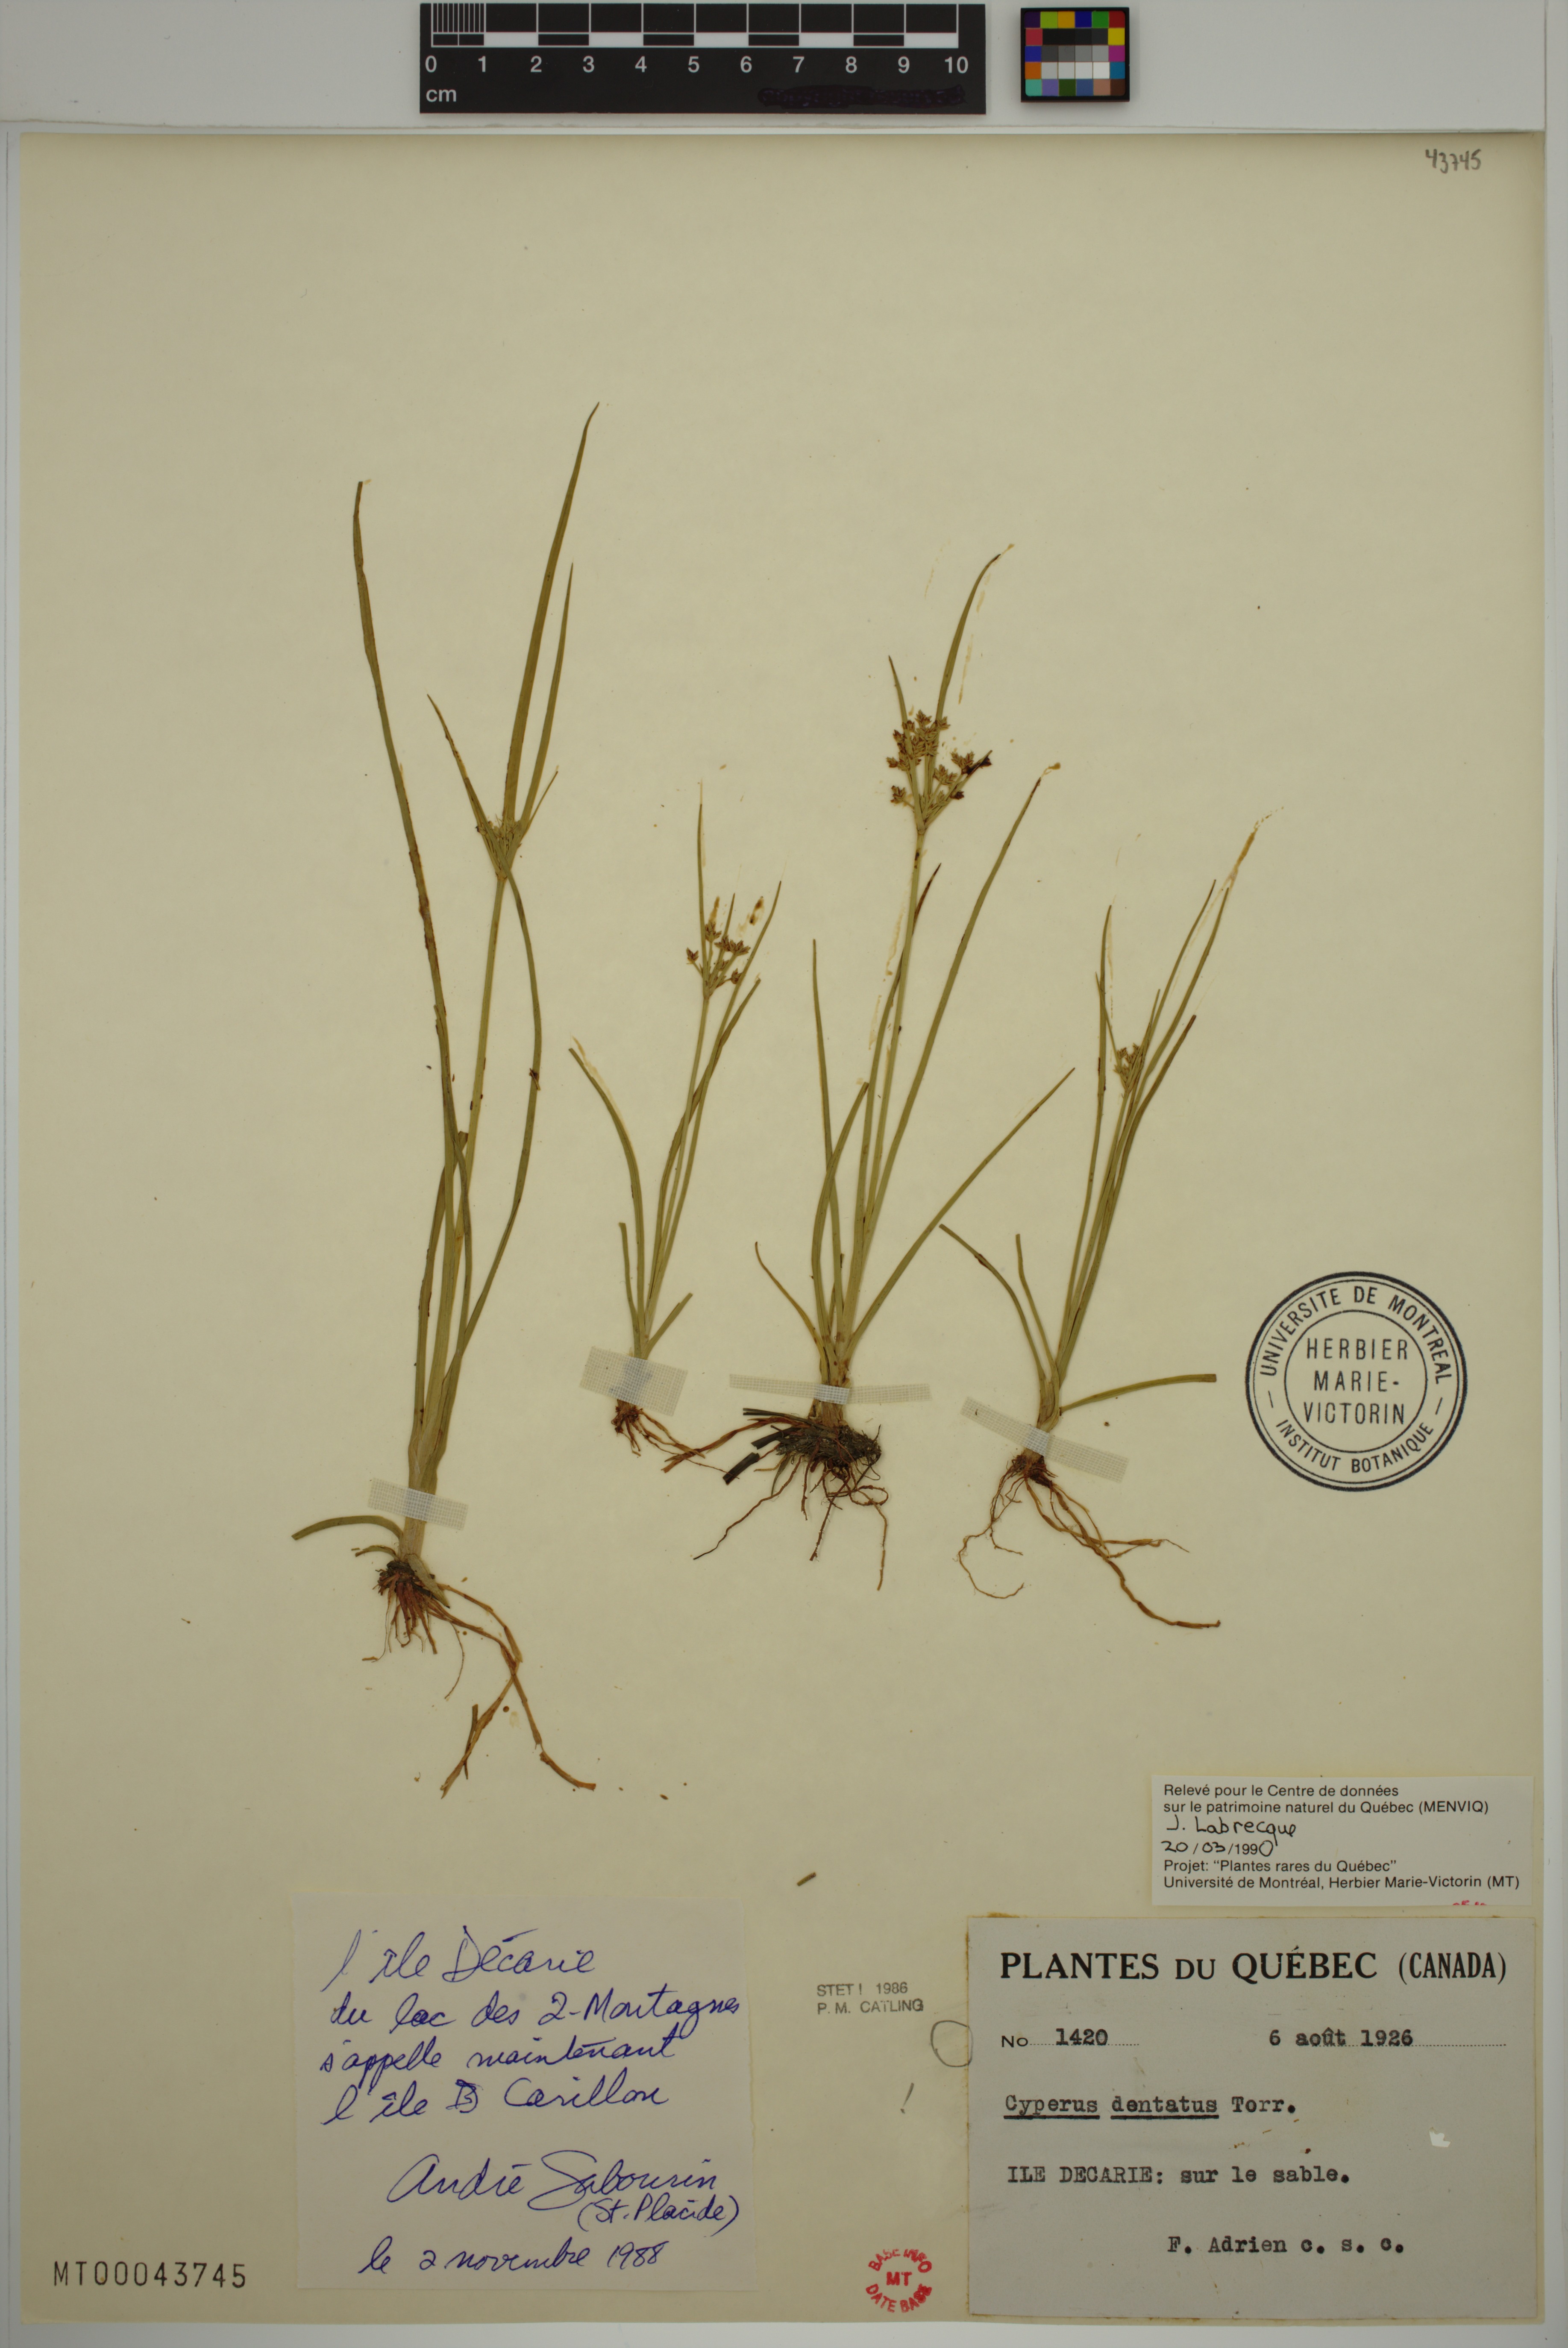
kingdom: Plantae
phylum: Tracheophyta
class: Liliopsida
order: Poales
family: Cyperaceae
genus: Cyperus
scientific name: Cyperus dentatus
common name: Dentate umbrella sedge
